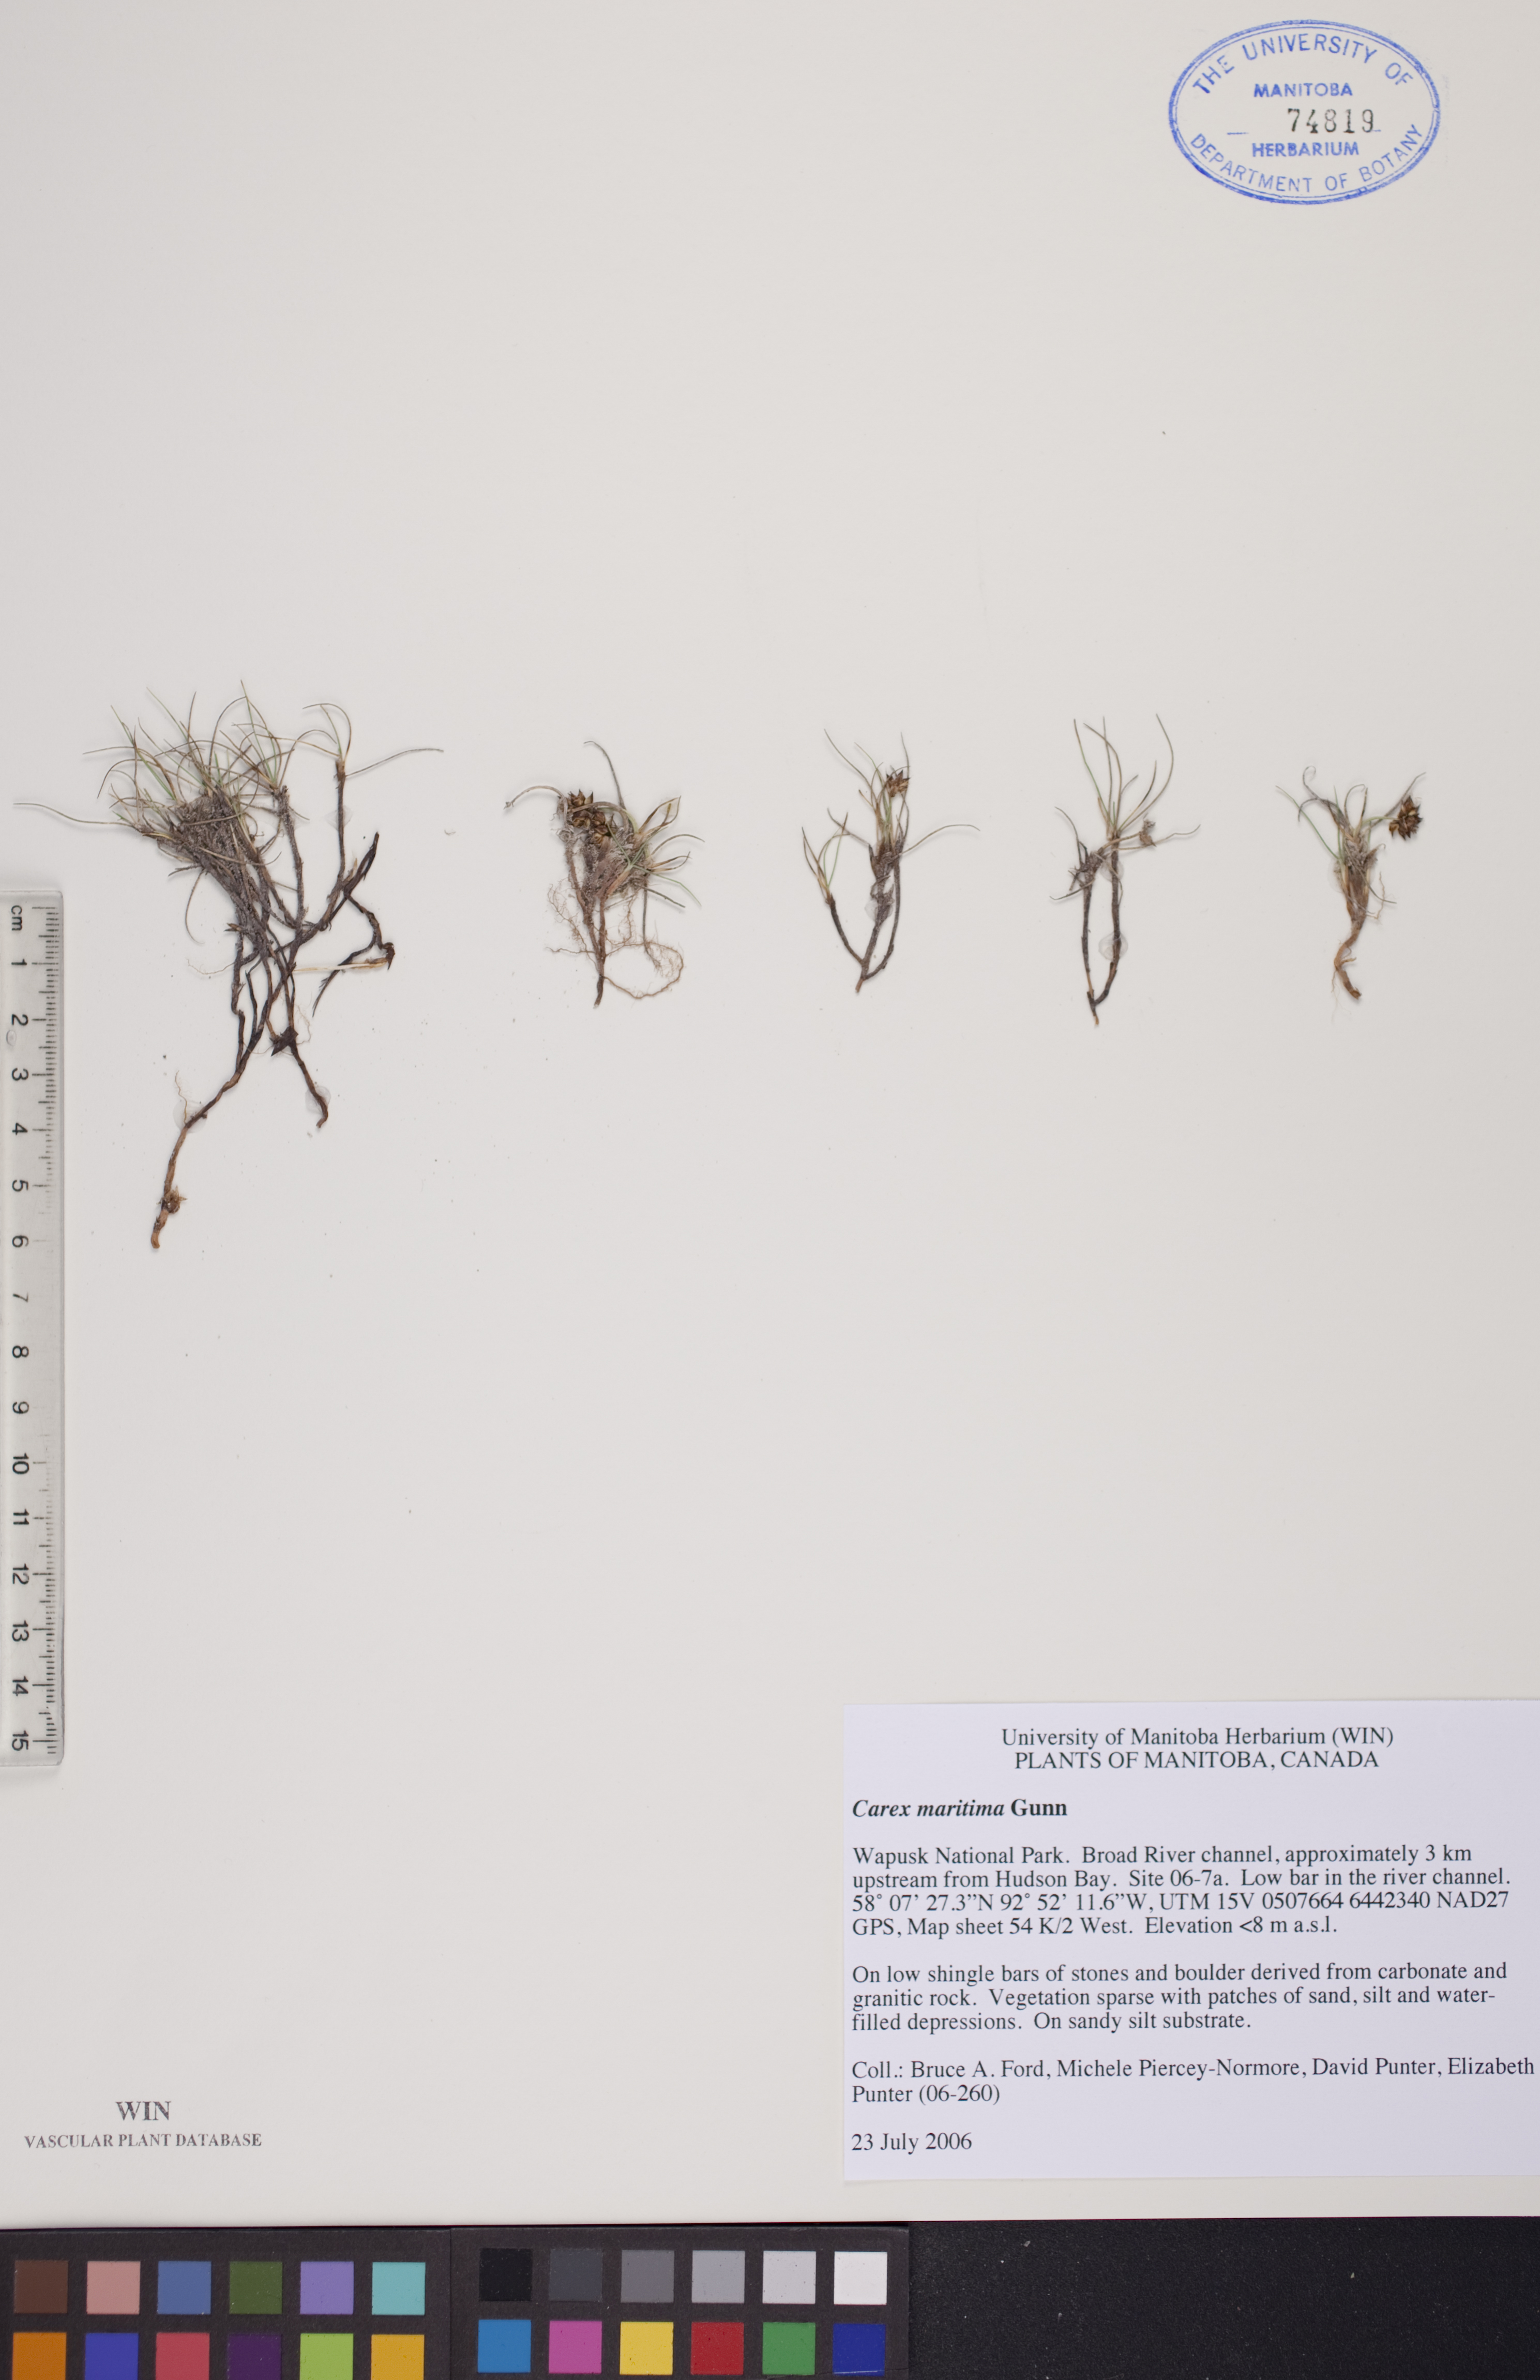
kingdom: Plantae
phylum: Tracheophyta
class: Liliopsida
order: Poales
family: Cyperaceae
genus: Carex
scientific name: Carex maritima
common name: Curved sedge
